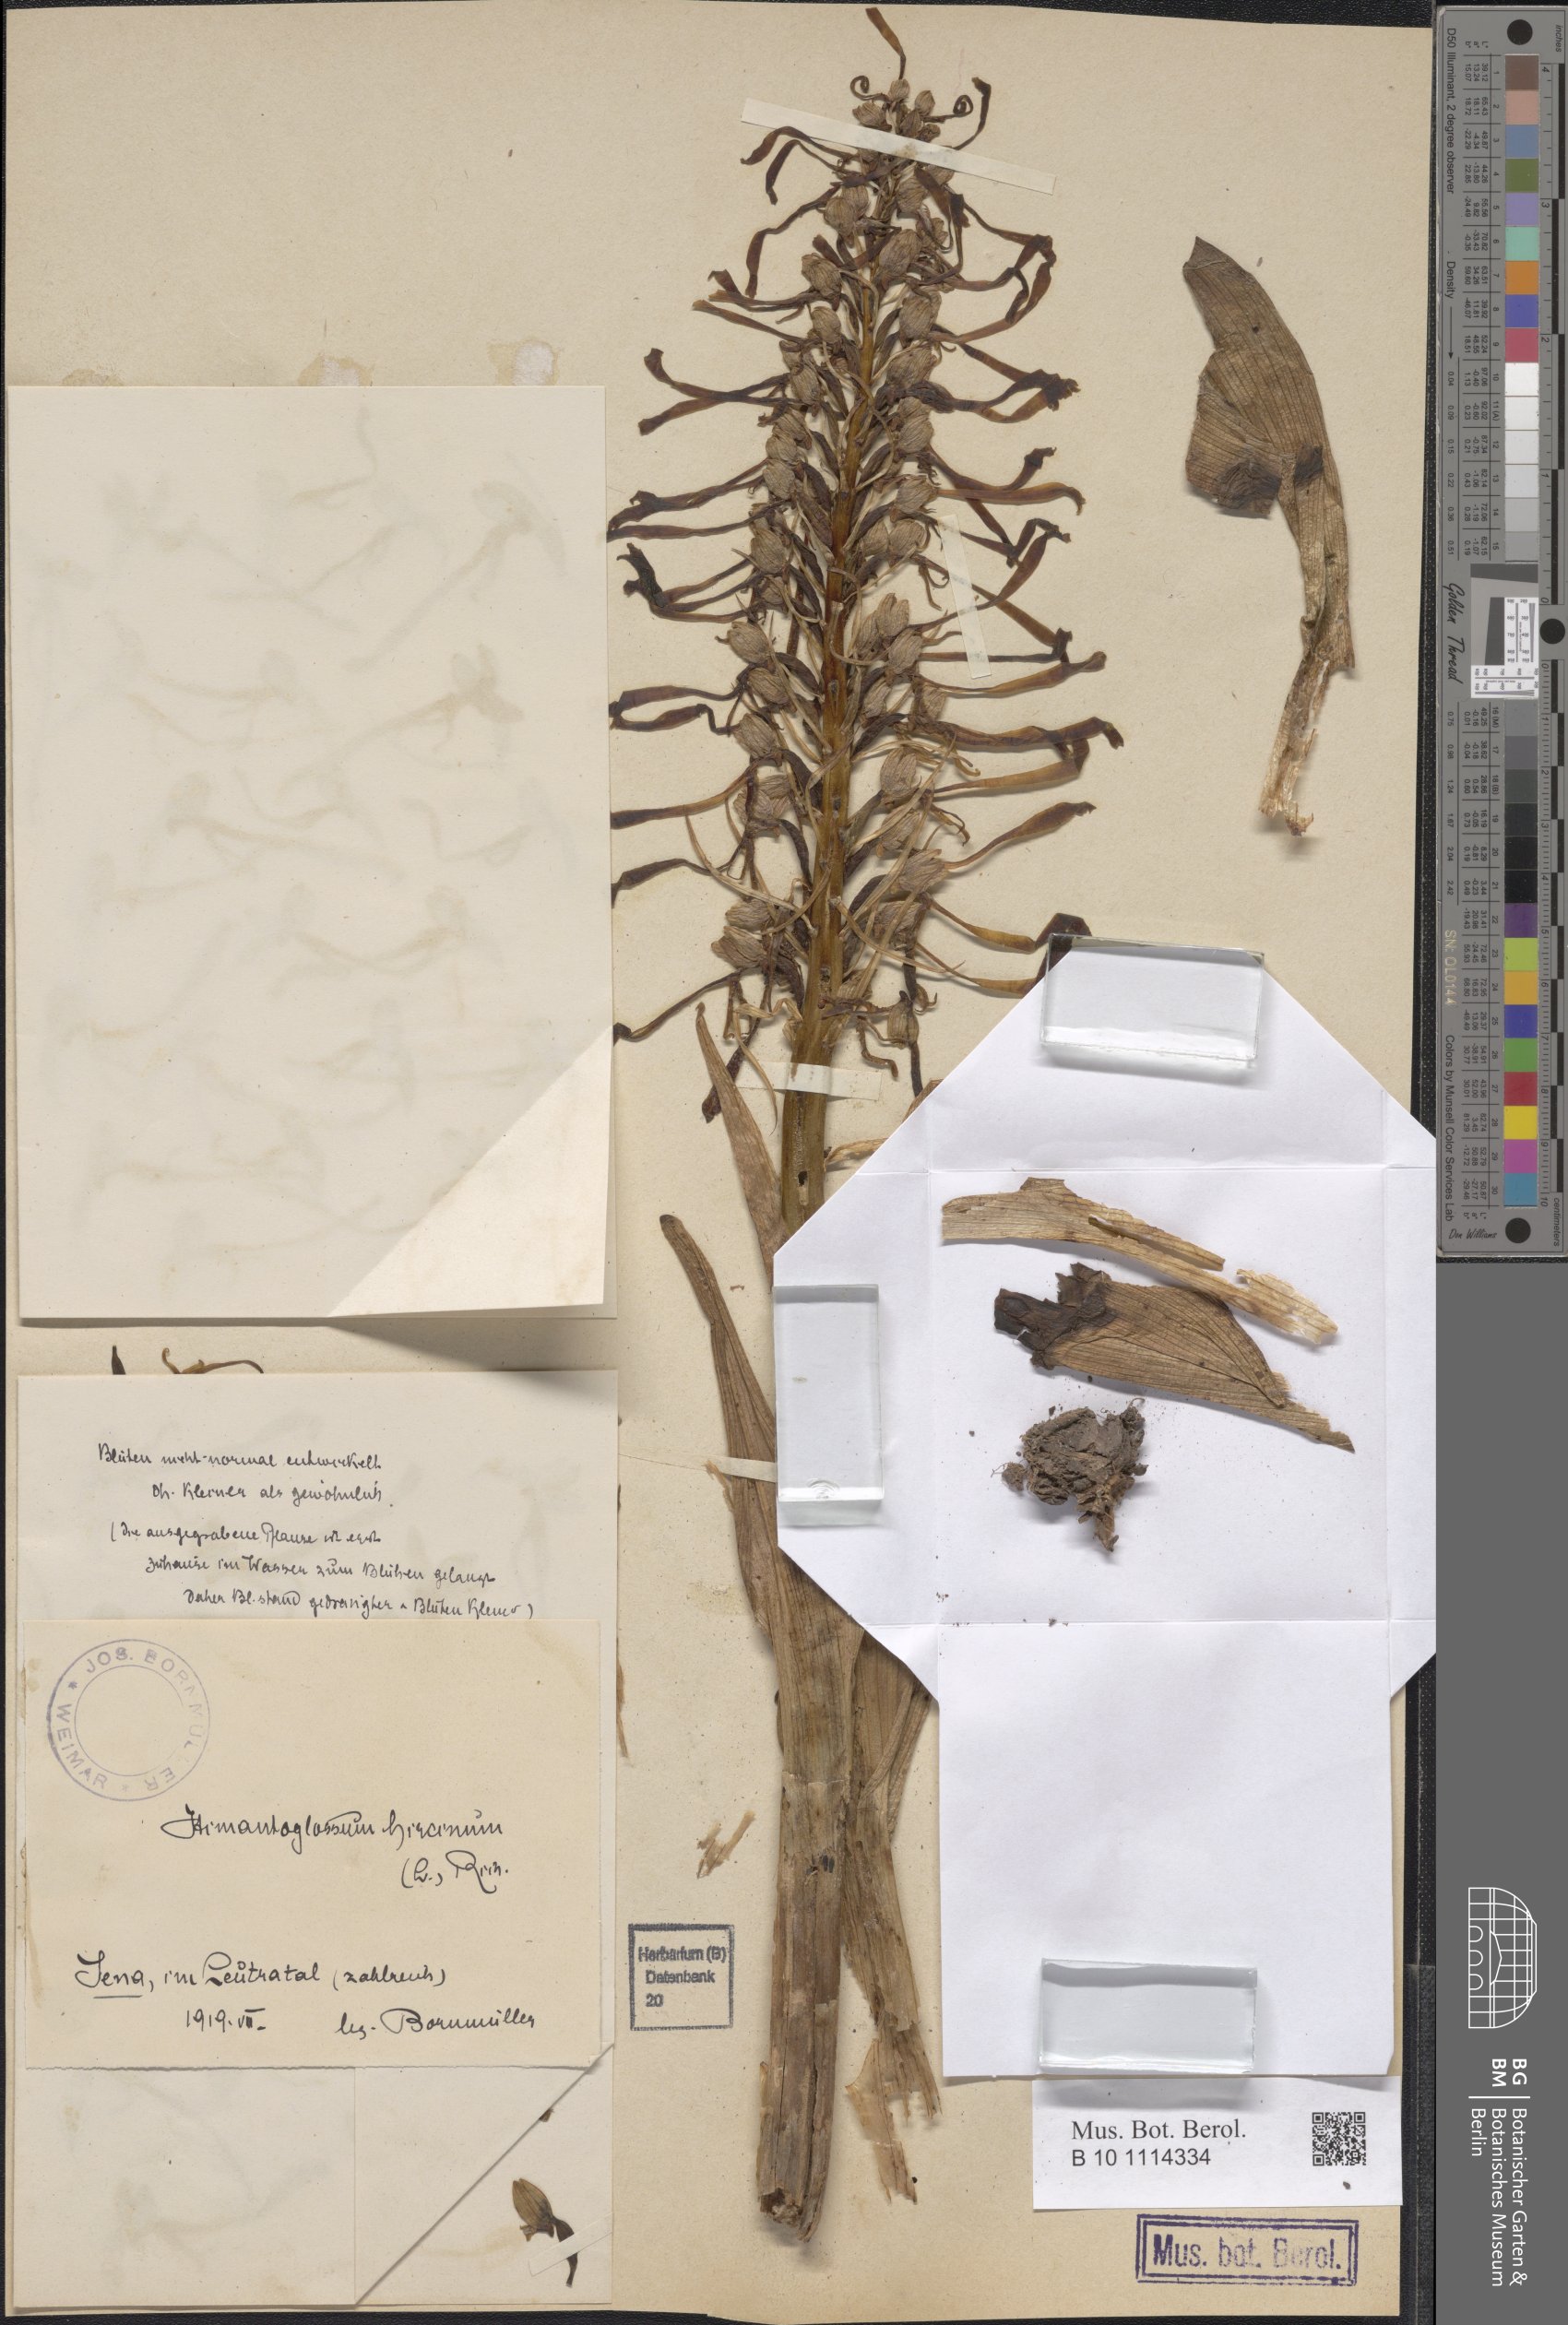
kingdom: Plantae
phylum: Tracheophyta
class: Liliopsida
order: Asparagales
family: Orchidaceae
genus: Himantoglossum
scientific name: Himantoglossum hircinum
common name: Lizard orchid
